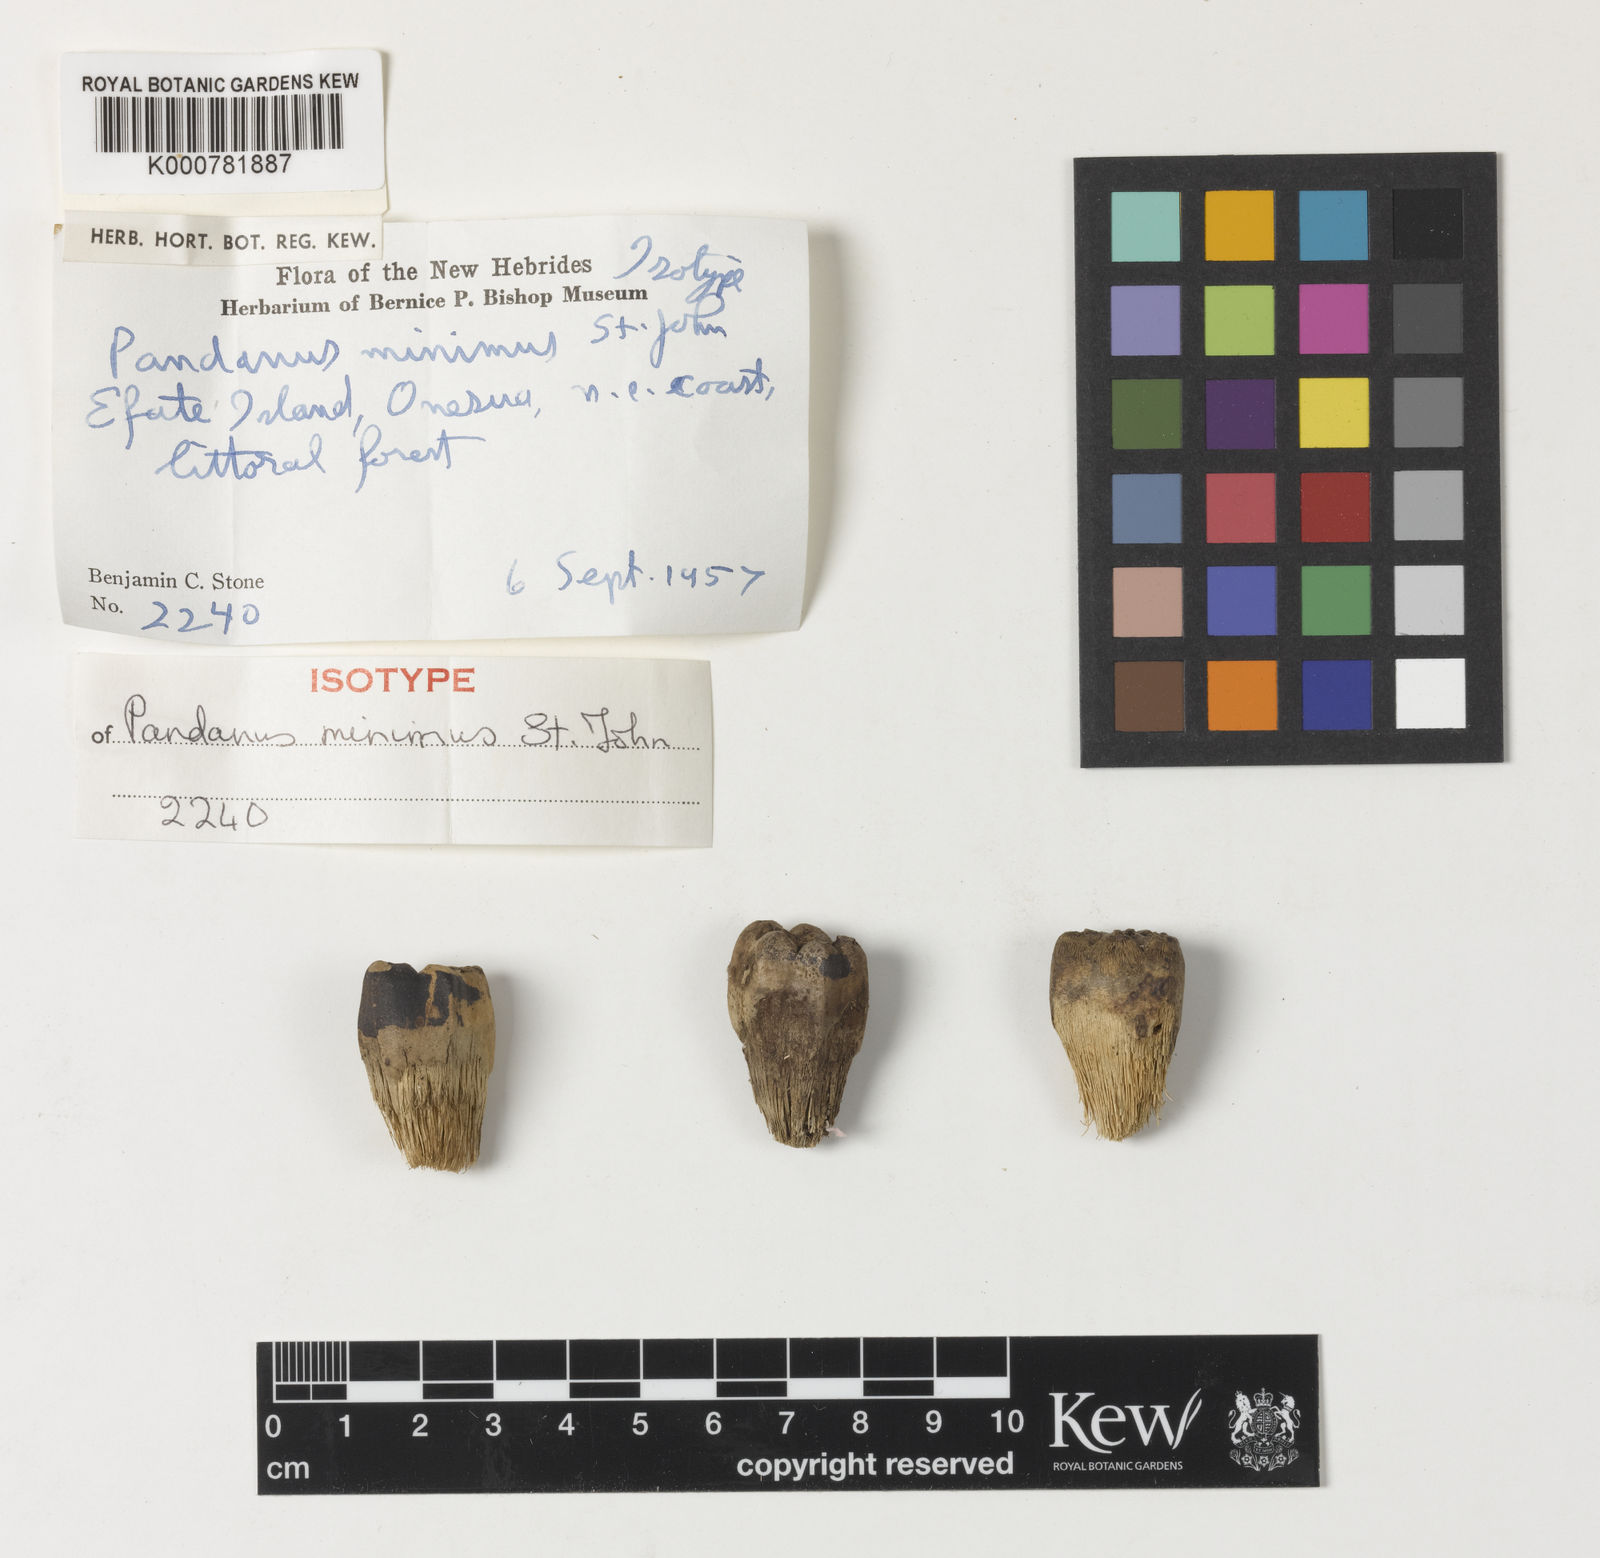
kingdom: Plantae
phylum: Tracheophyta
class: Liliopsida
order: Pandanales
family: Pandanaceae
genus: Pandanus
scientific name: Pandanus minimus
